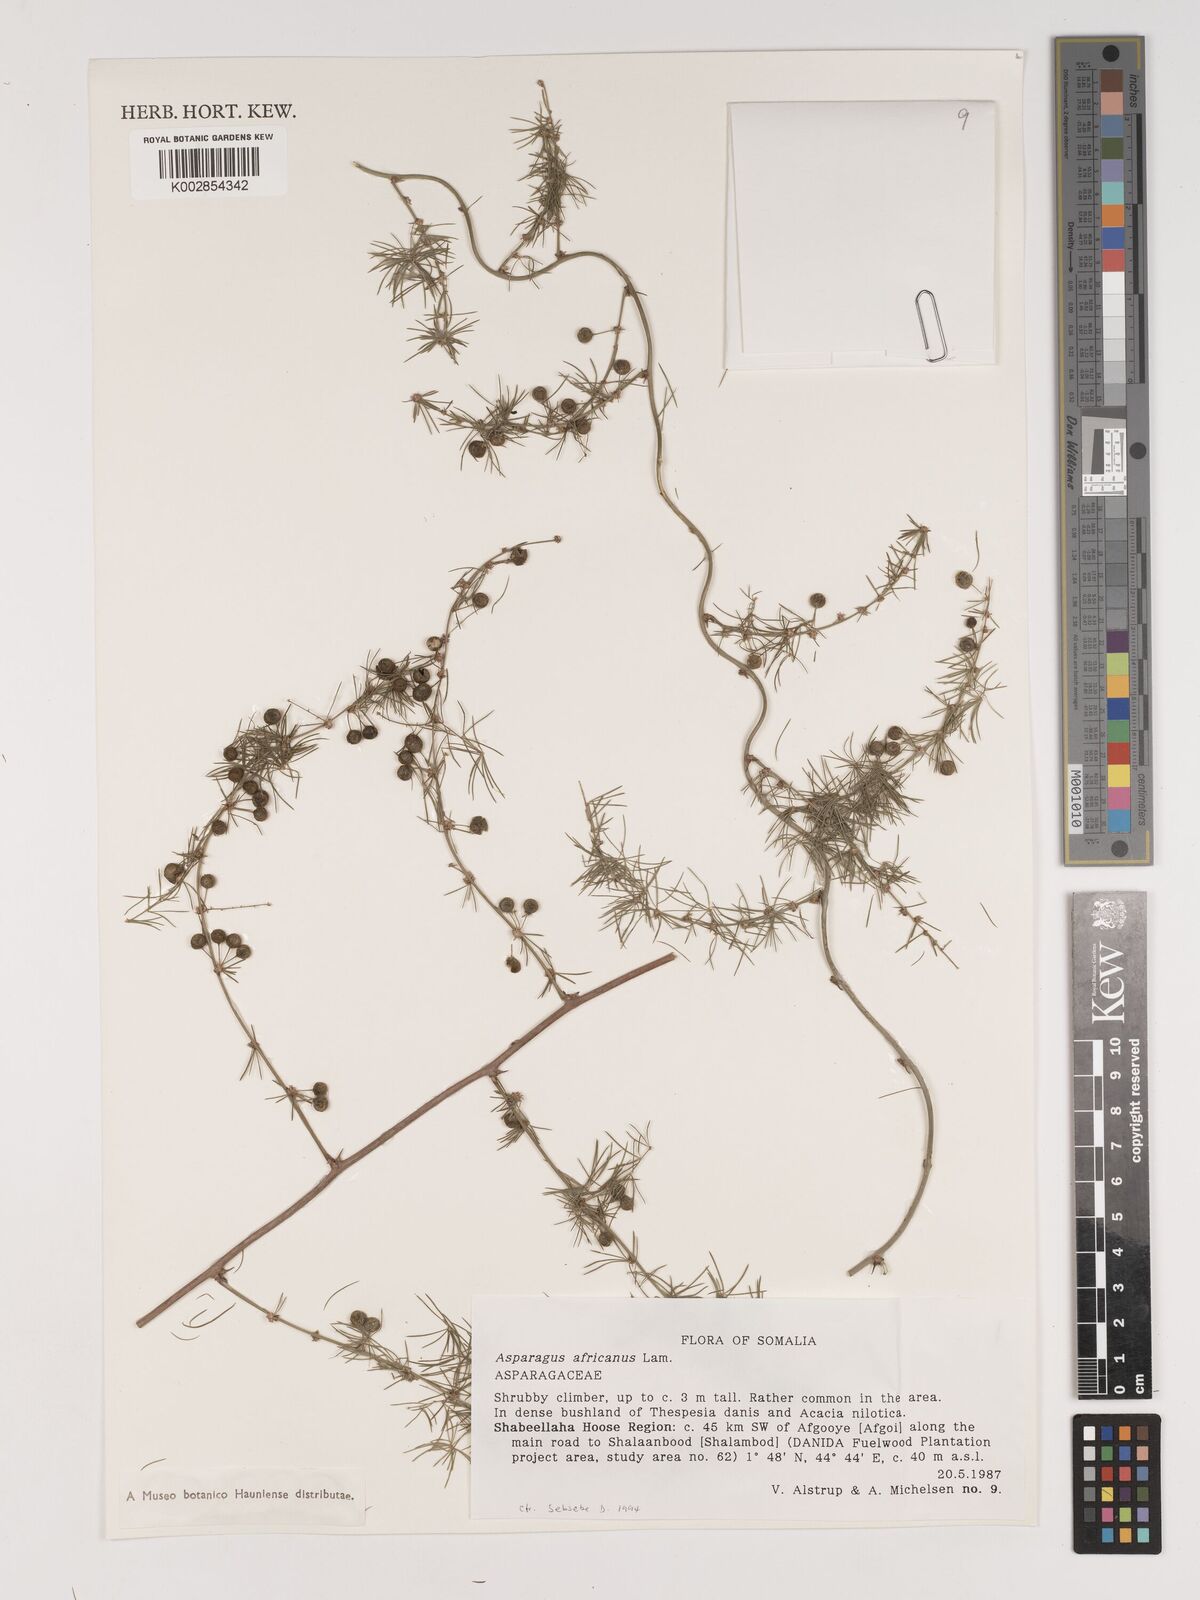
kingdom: Plantae
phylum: Tracheophyta
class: Liliopsida
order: Asparagales
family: Asparagaceae
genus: Asparagus
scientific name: Asparagus africanus
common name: Asparagus-fern
